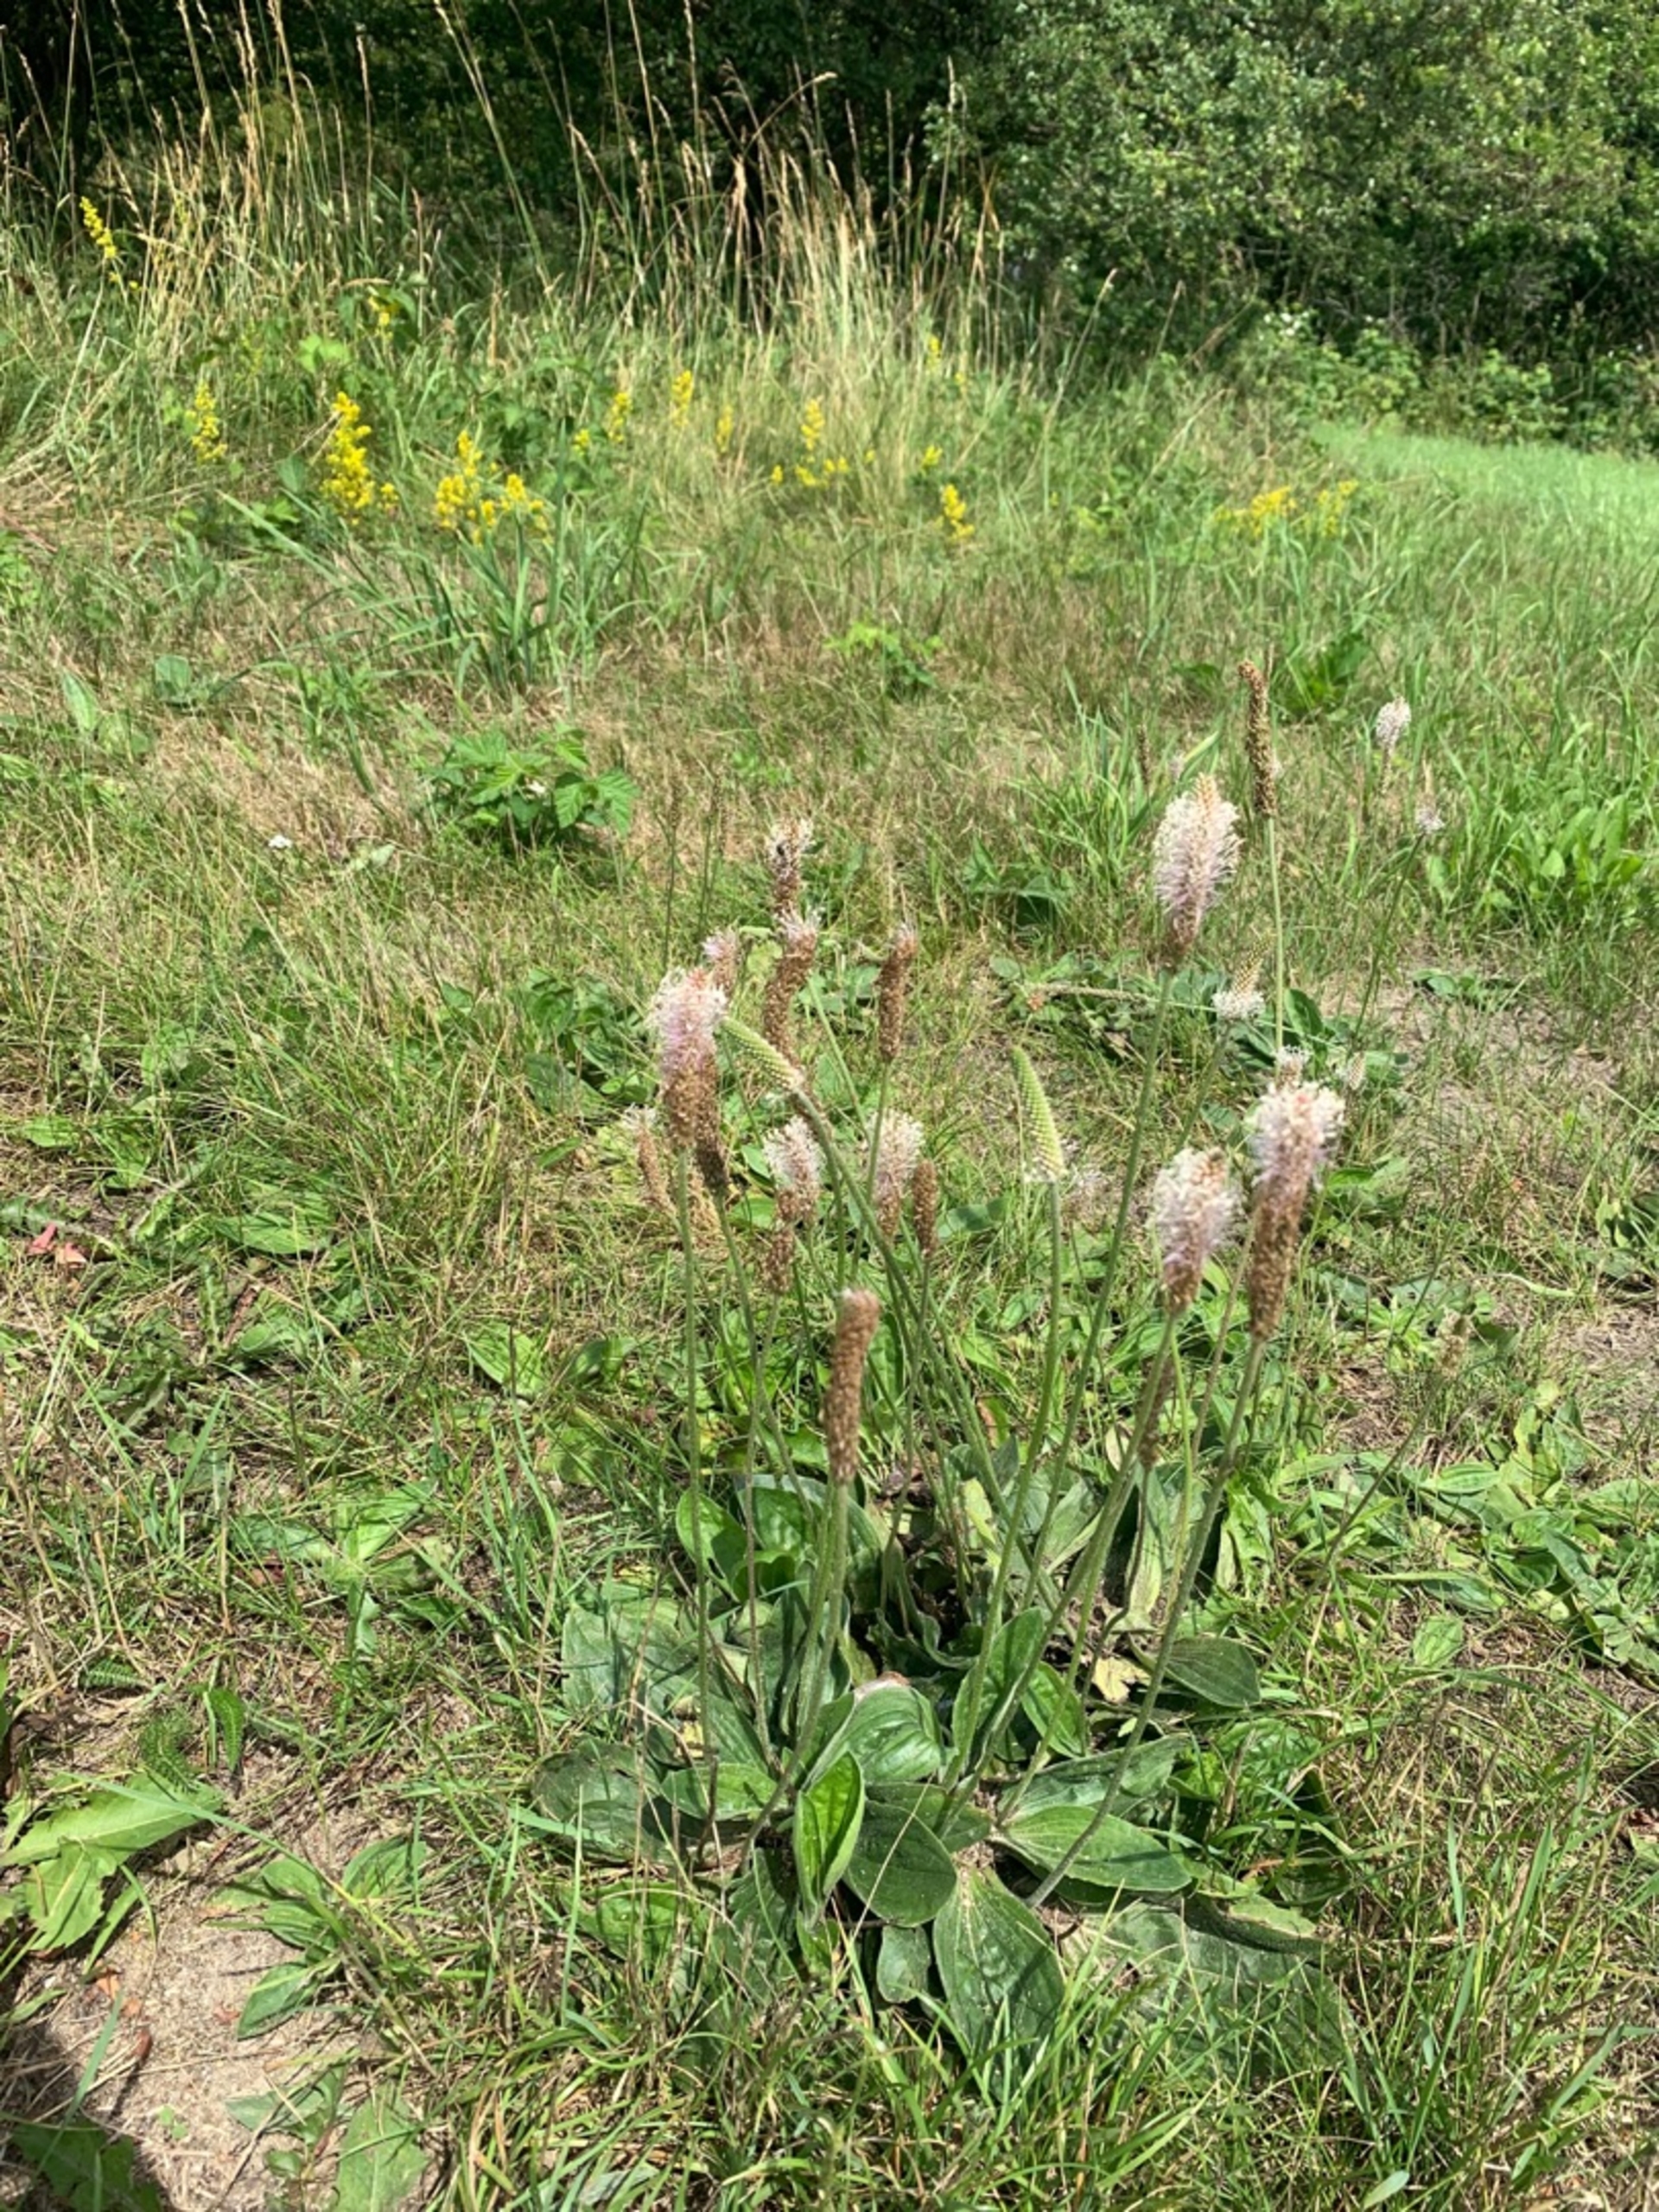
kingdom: Plantae
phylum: Tracheophyta
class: Magnoliopsida
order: Lamiales
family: Plantaginaceae
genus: Plantago
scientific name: Plantago media
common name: Dunet vejbred
